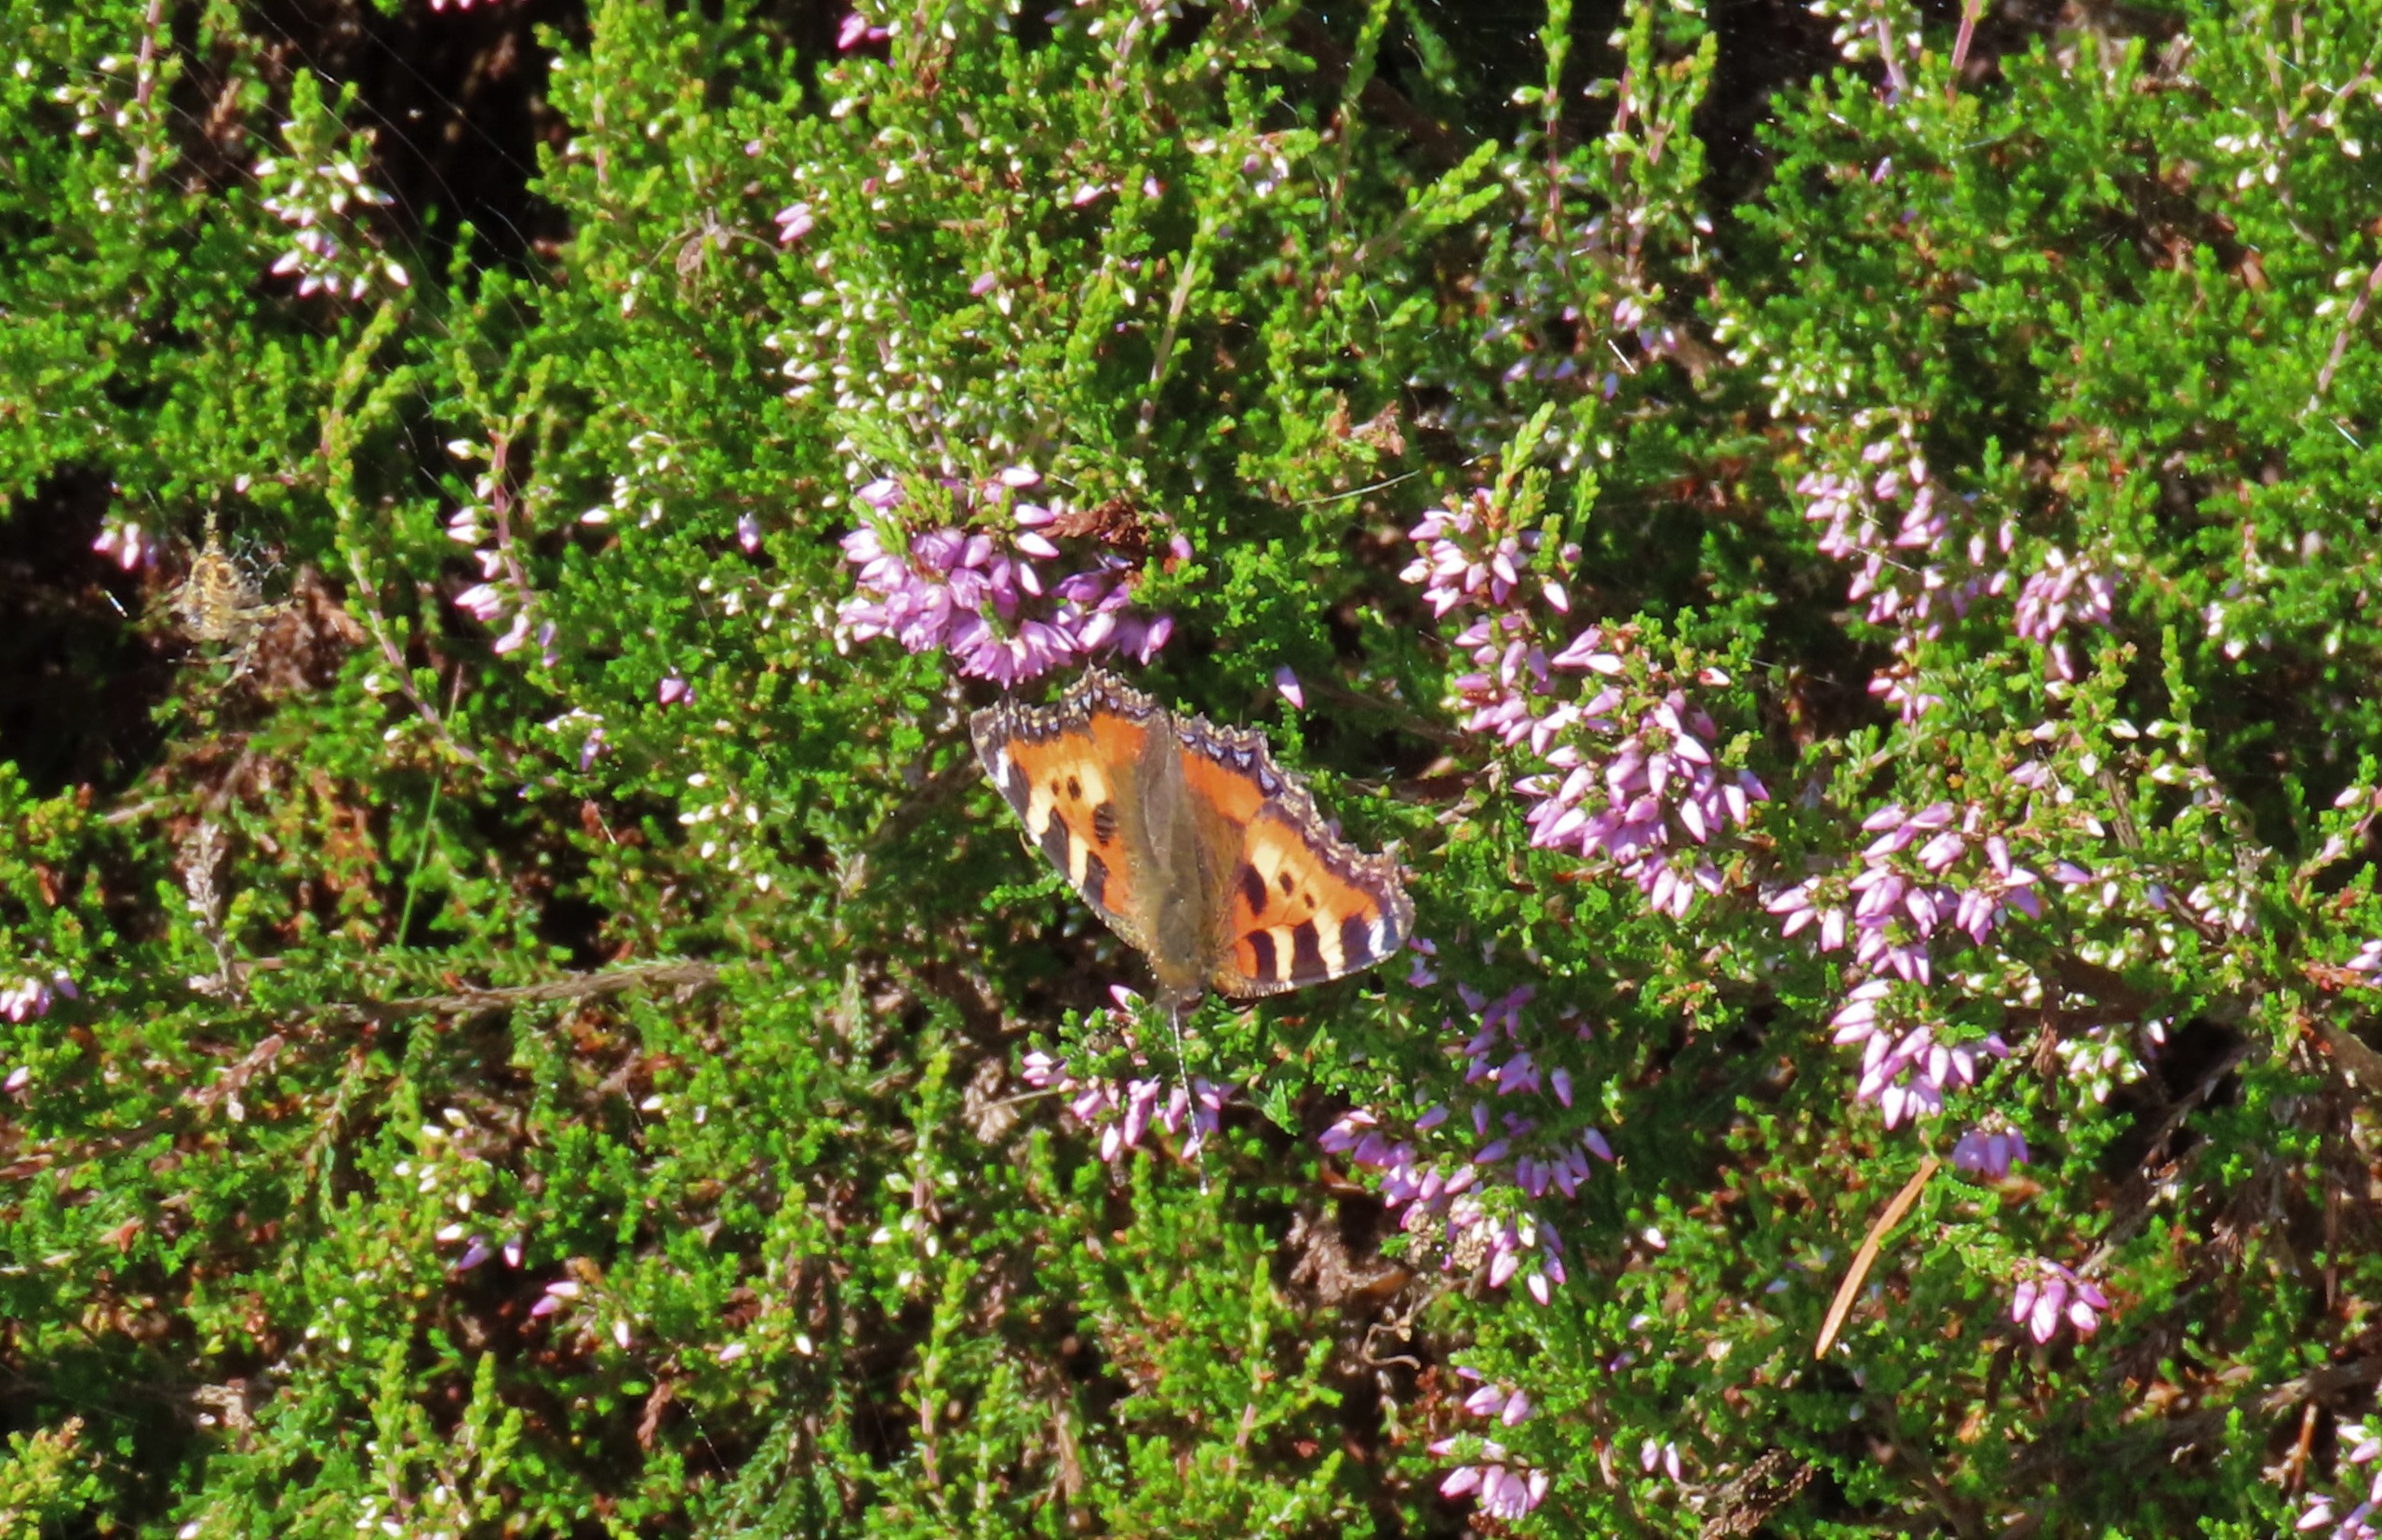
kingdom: Animalia
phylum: Arthropoda
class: Insecta
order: Lepidoptera
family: Nymphalidae
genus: Aglais
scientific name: Aglais urticae
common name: Nældens takvinge
